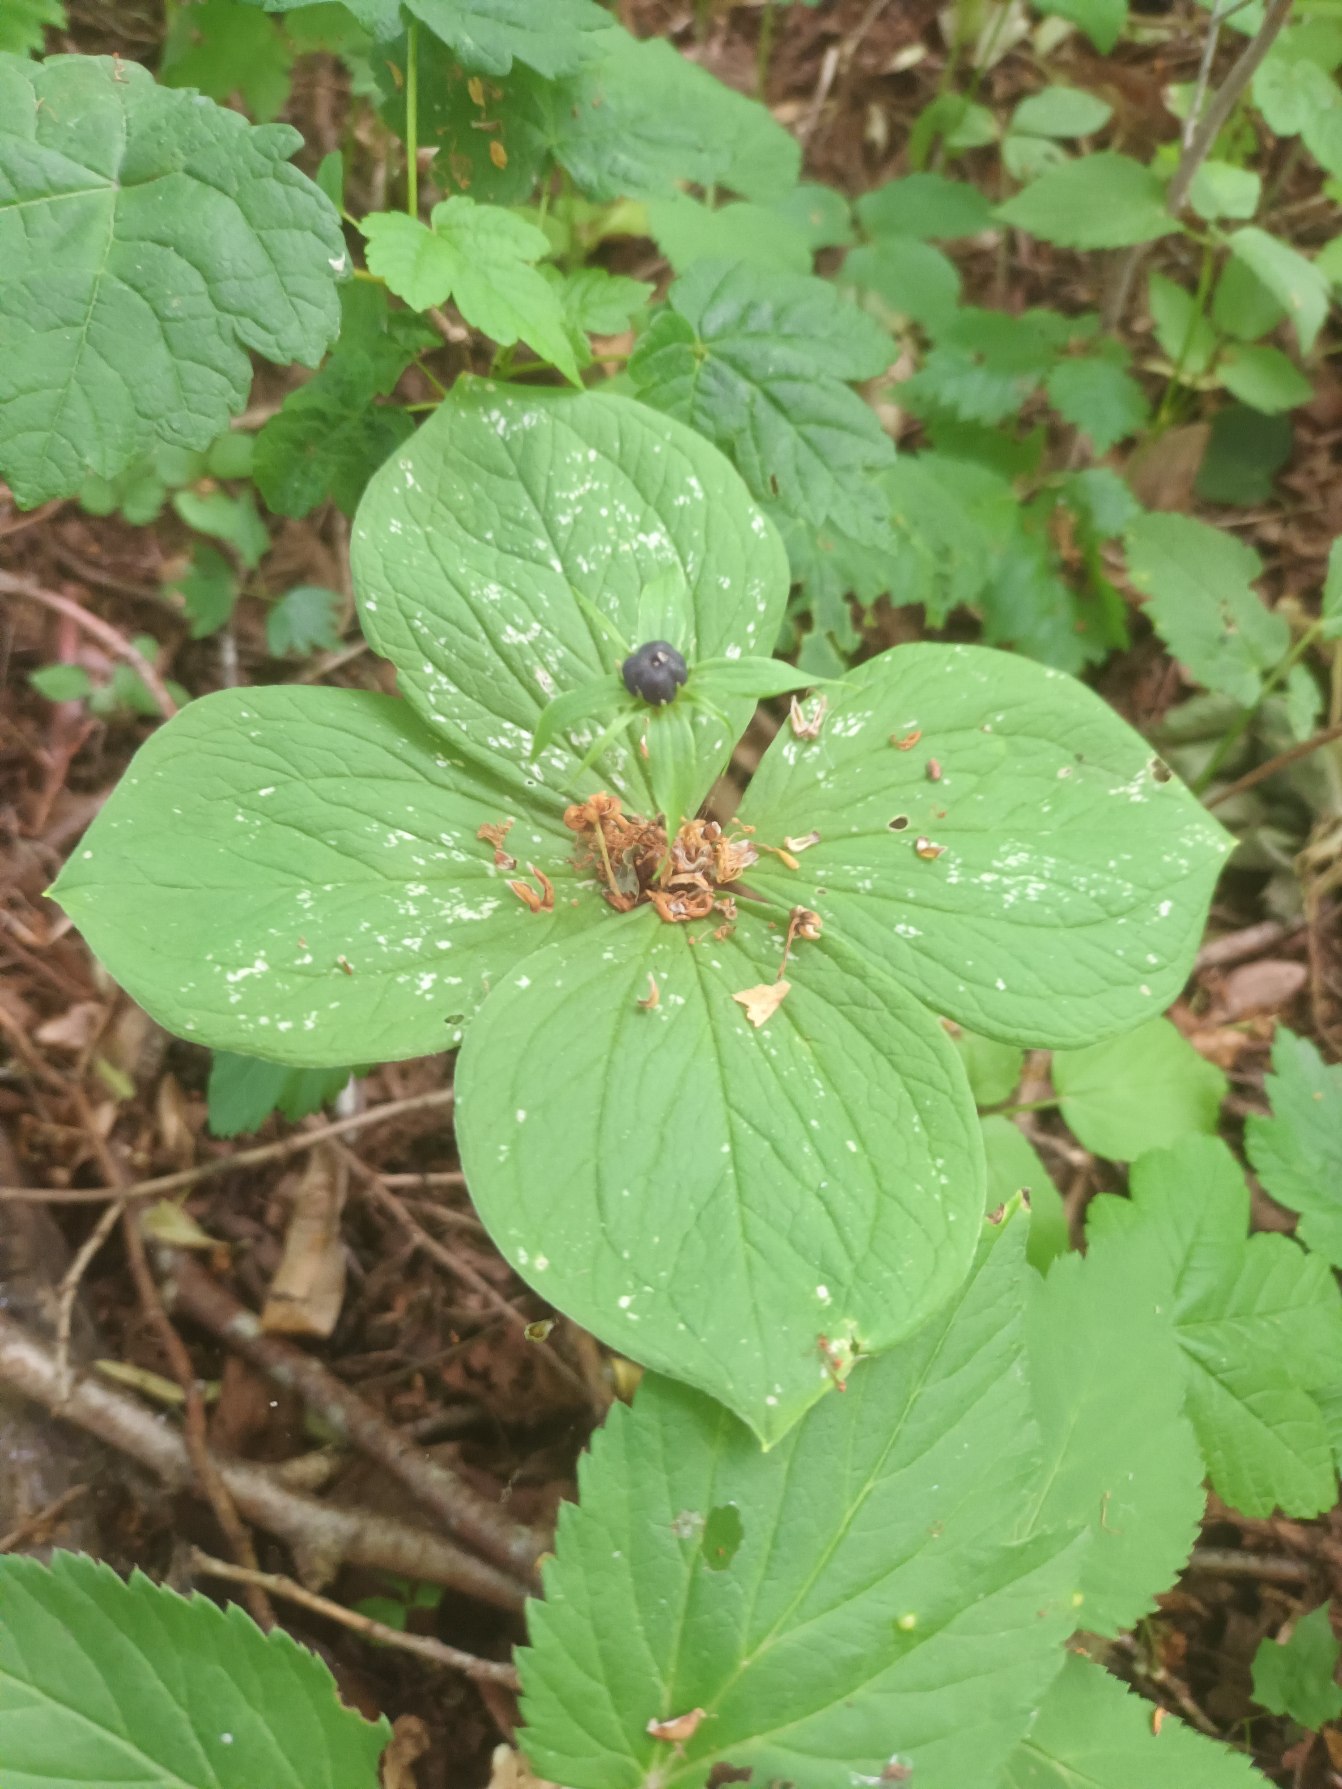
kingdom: Plantae
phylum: Tracheophyta
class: Liliopsida
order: Liliales
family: Melanthiaceae
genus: Paris
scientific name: Paris quadrifolia
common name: Firblad
